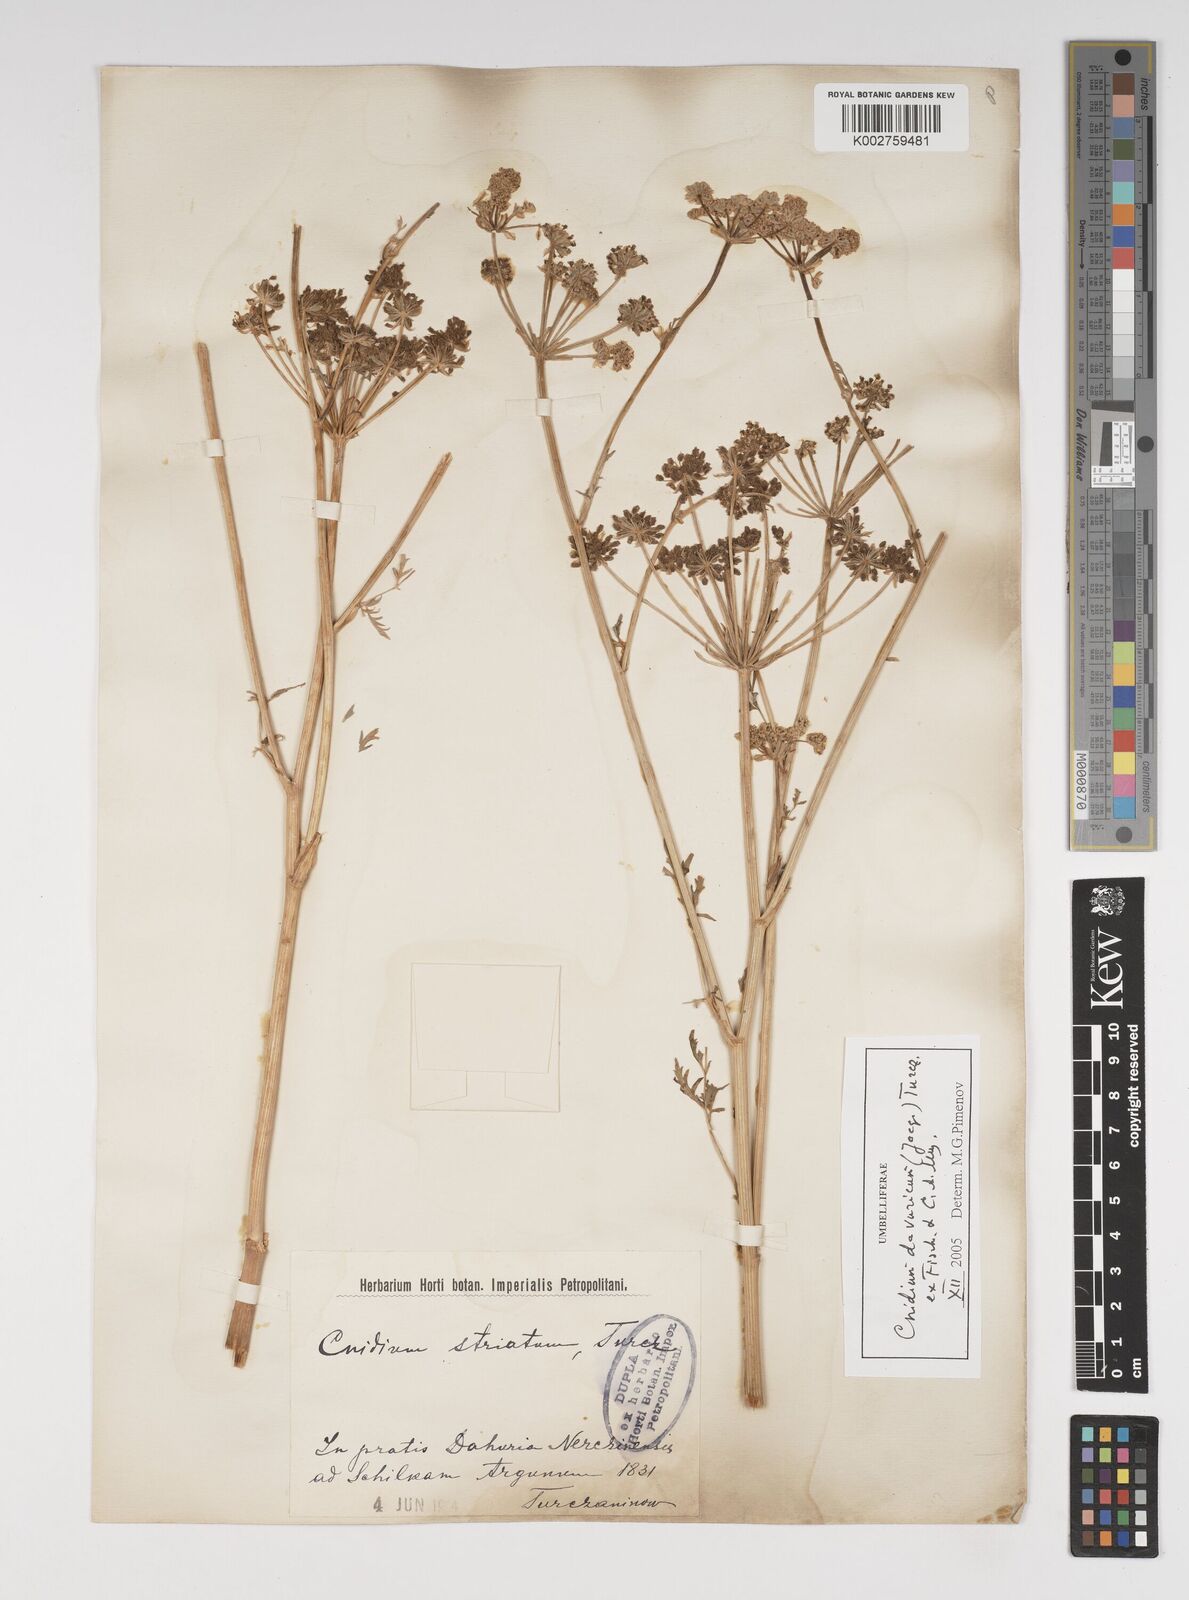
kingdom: Plantae
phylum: Tracheophyta
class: Magnoliopsida
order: Apiales
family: Apiaceae
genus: Cnidium
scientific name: Cnidium dauricum
